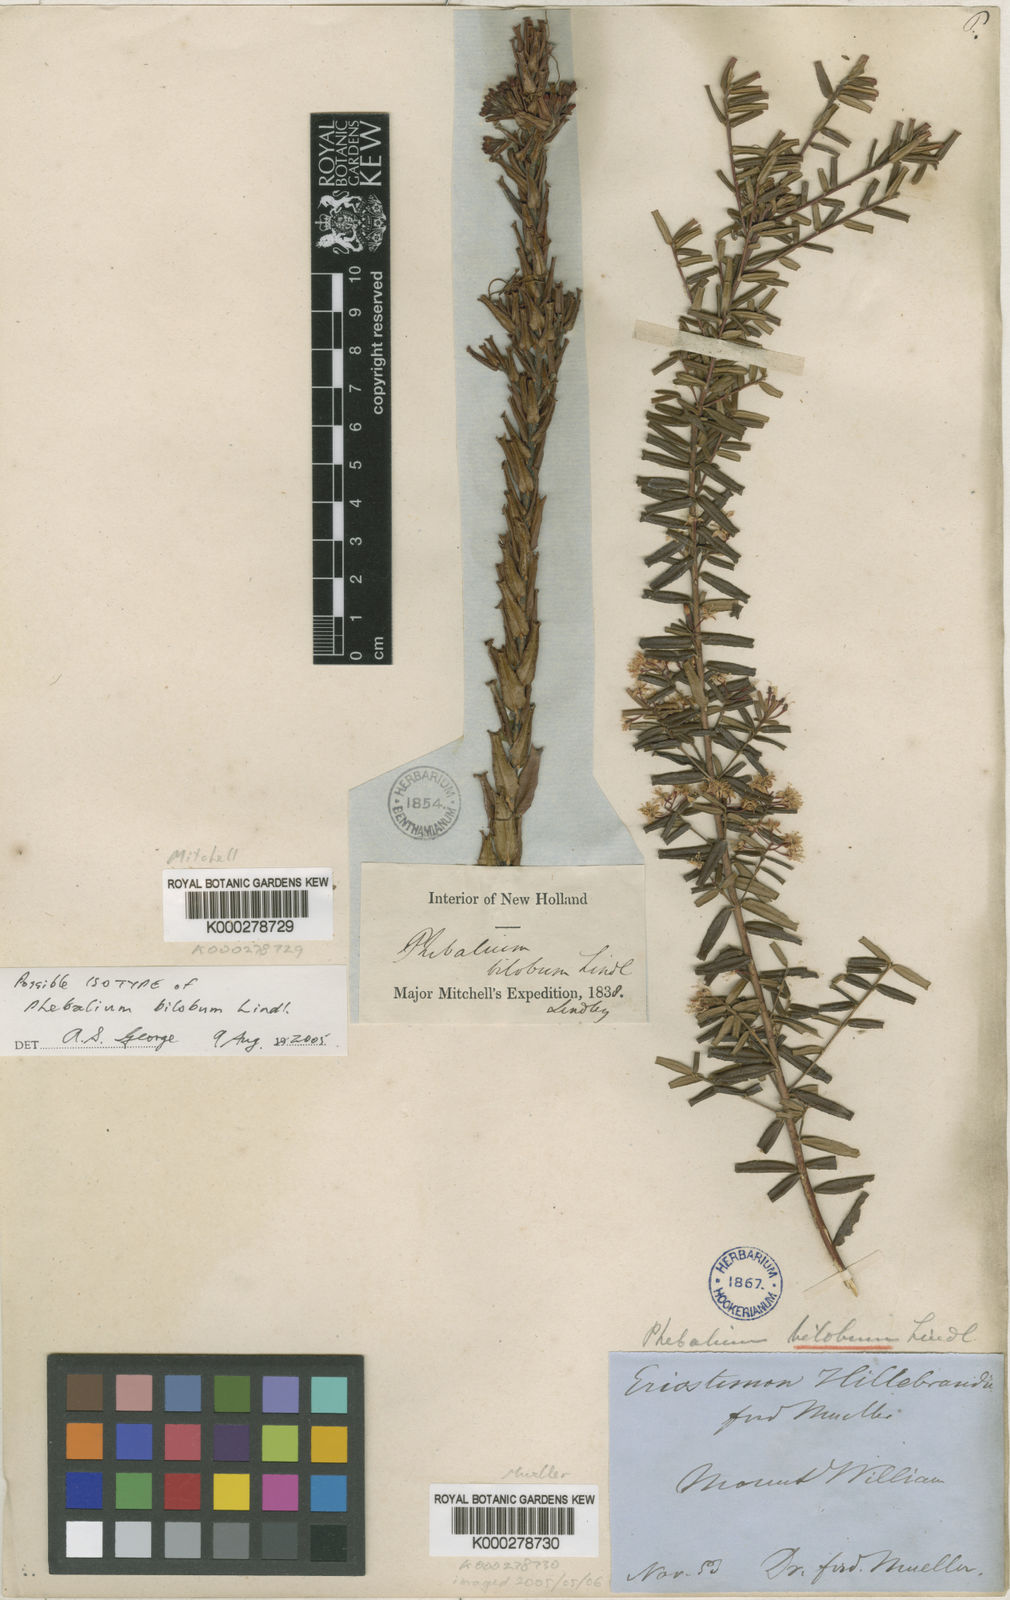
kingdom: Plantae
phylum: Tracheophyta
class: Magnoliopsida
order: Sapindales
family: Rutaceae
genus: Leionema
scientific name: Leionema bilobum
